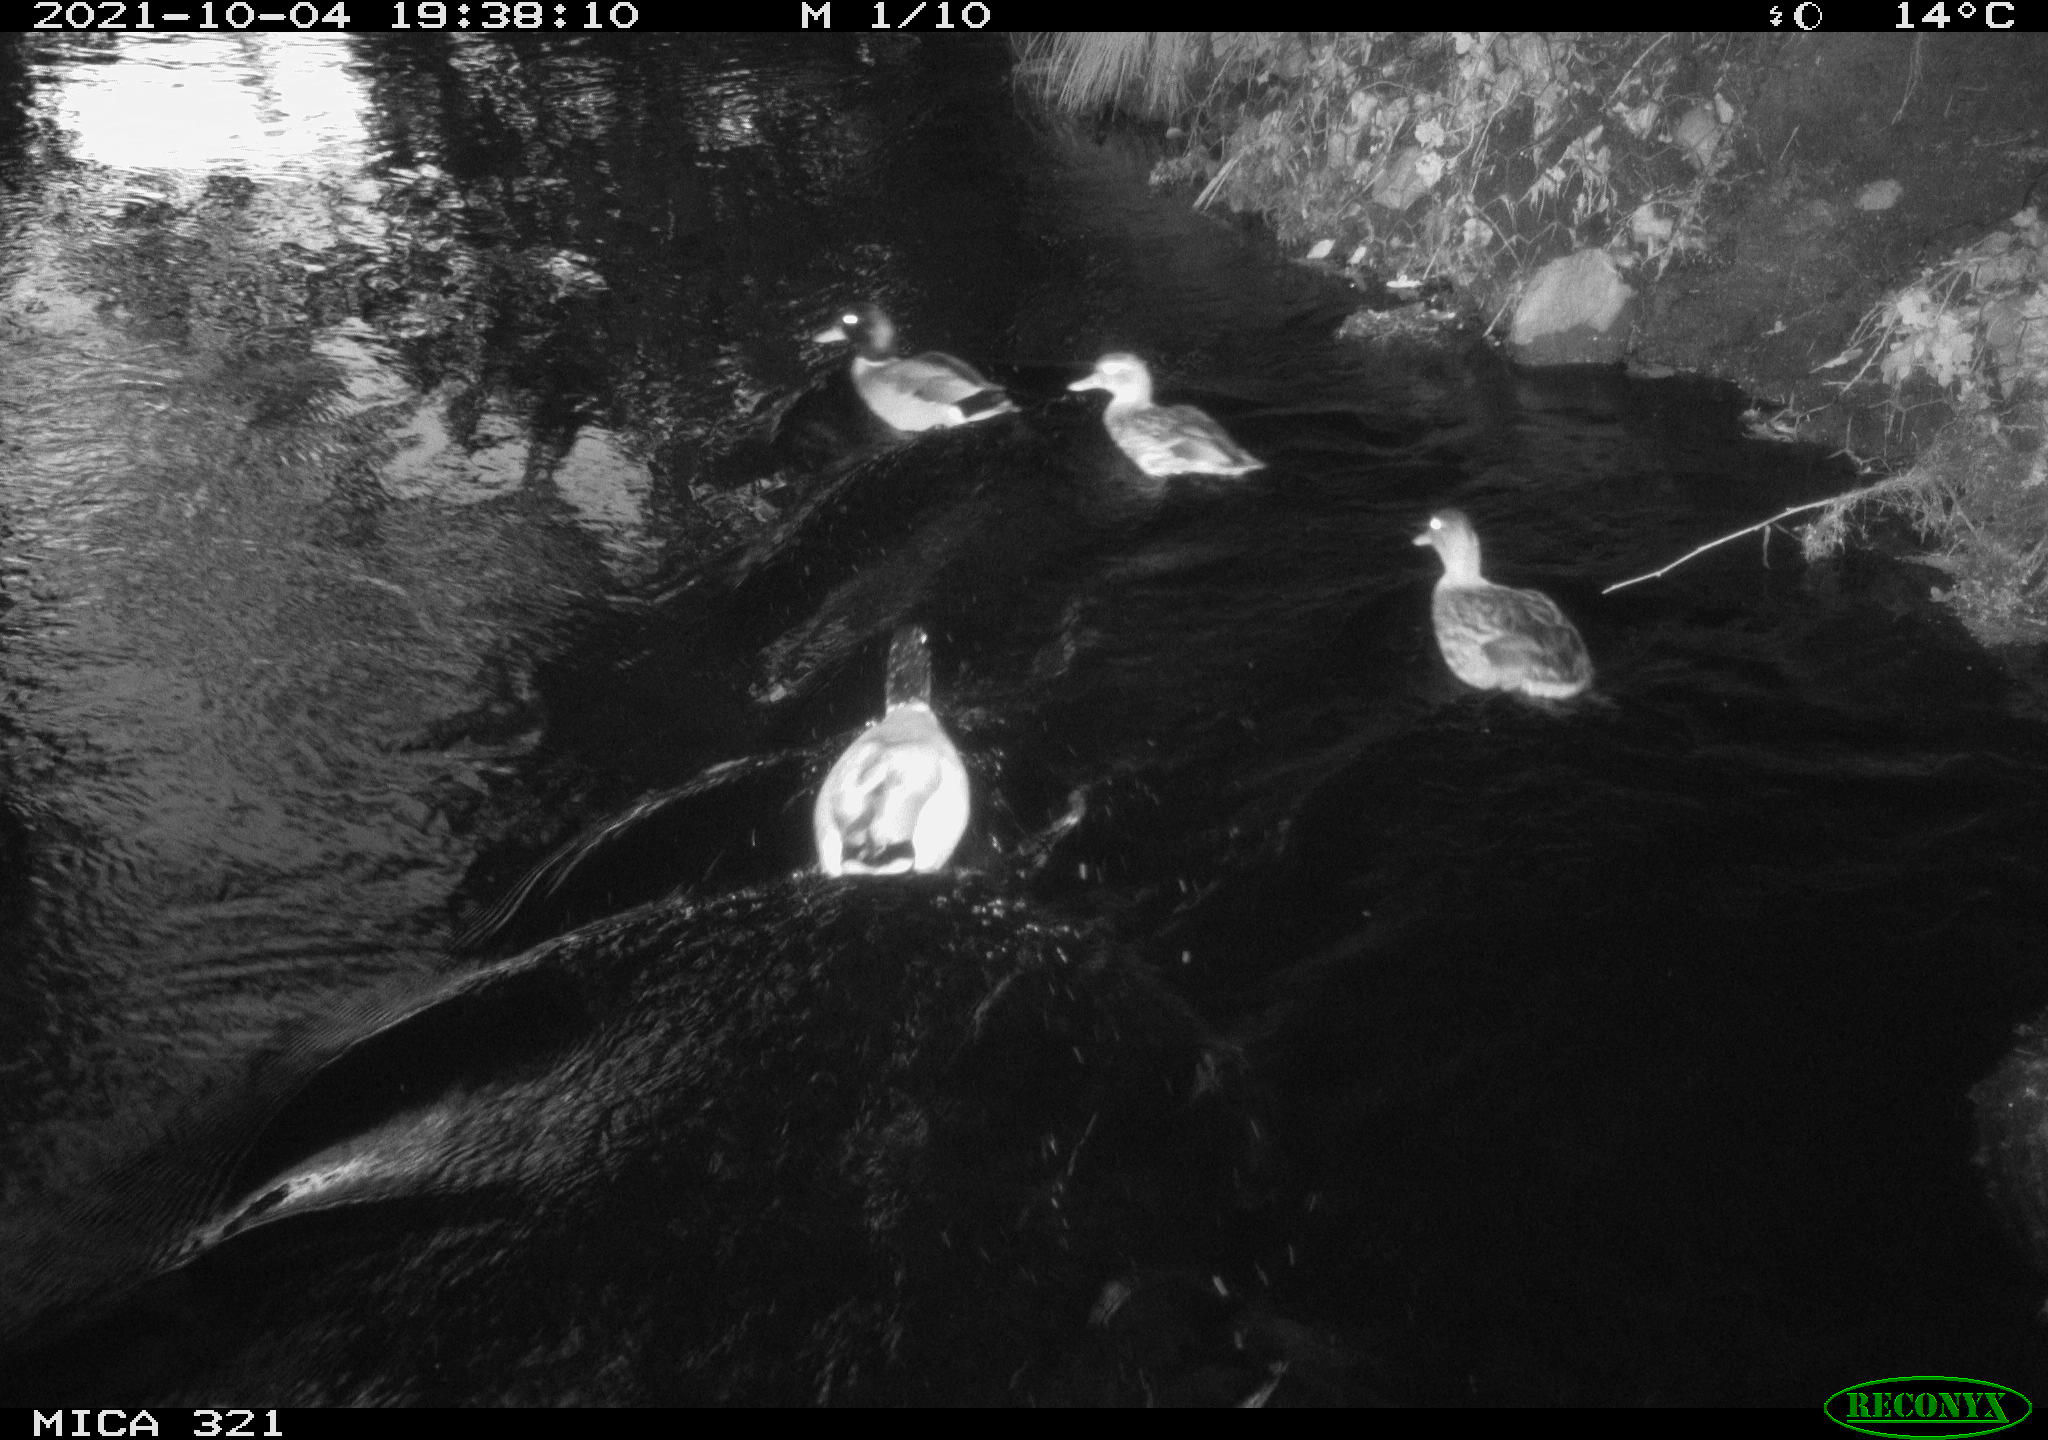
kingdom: Animalia
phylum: Chordata
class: Aves
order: Anseriformes
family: Anatidae
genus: Anas
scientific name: Anas platyrhynchos
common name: Mallard
